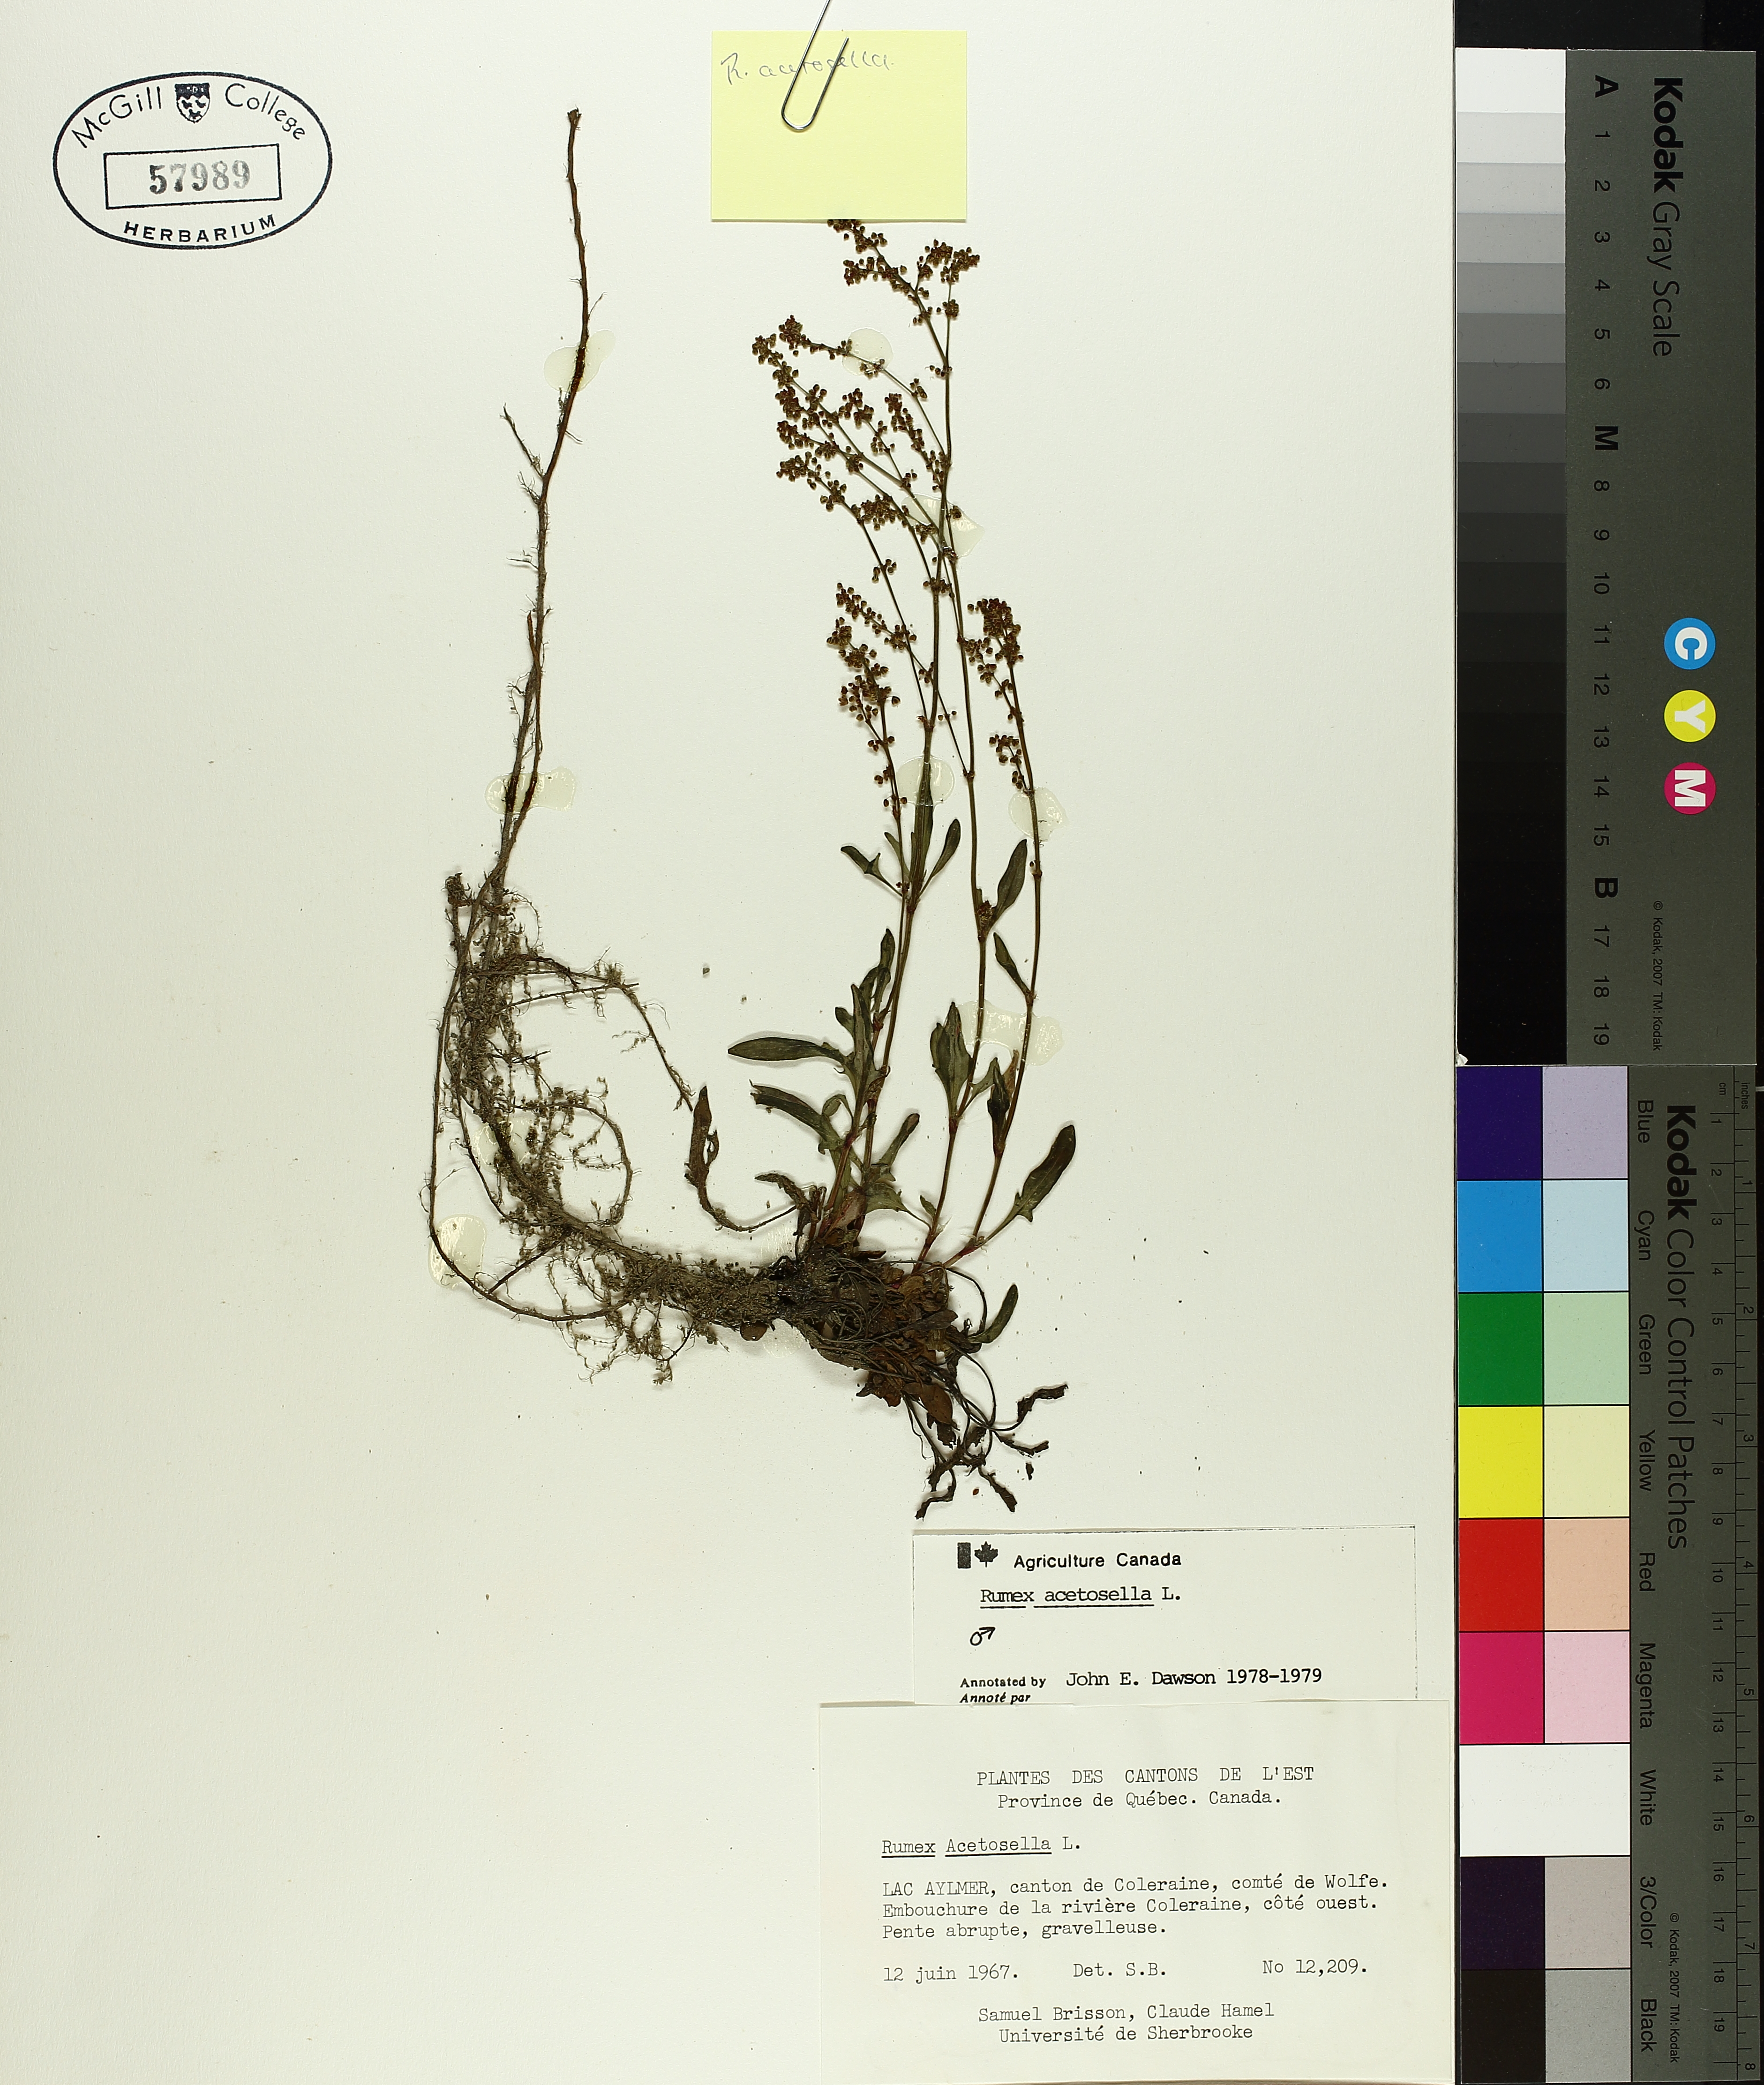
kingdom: Plantae
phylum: Tracheophyta
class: Magnoliopsida
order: Caryophyllales
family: Polygonaceae
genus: Rumex
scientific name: Rumex acetosella
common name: Common sheep sorrel
